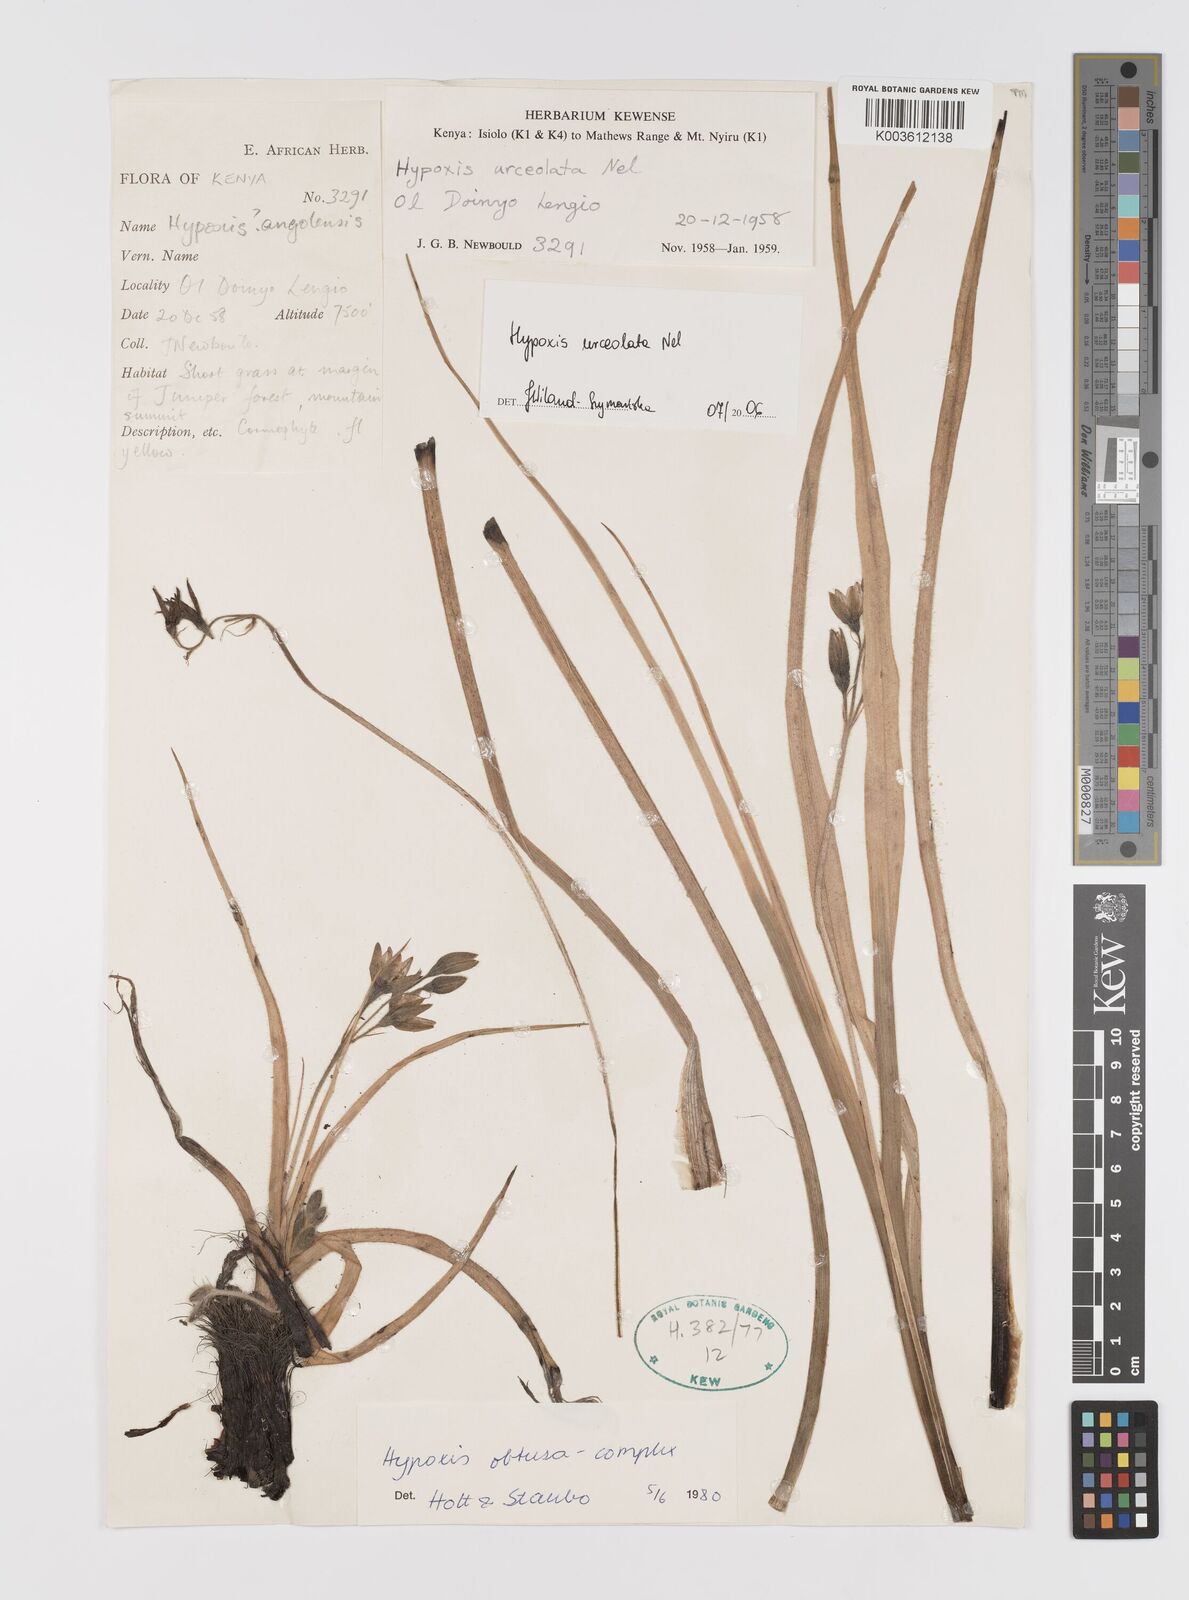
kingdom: Plantae
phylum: Tracheophyta
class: Liliopsida
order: Asparagales
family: Hypoxidaceae
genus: Hypoxis
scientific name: Hypoxis urceolata
